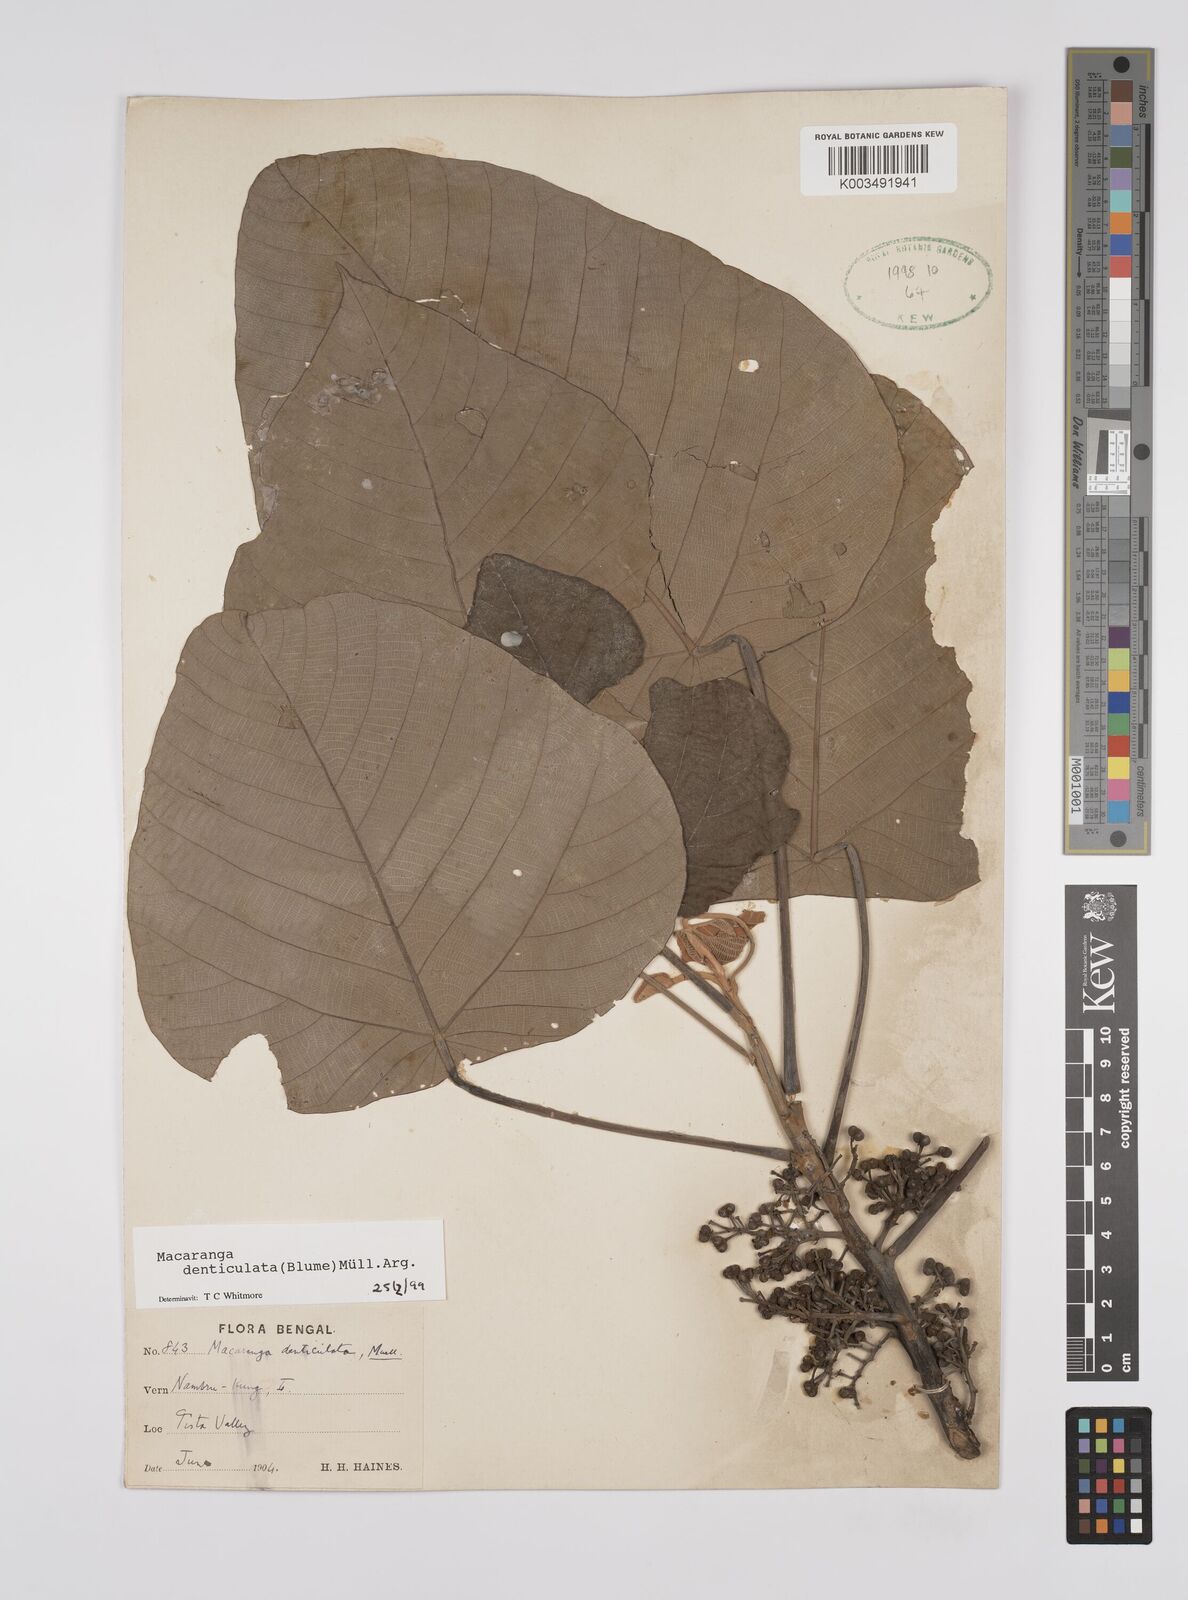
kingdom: Plantae
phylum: Tracheophyta
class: Magnoliopsida
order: Malpighiales
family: Euphorbiaceae
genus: Macaranga
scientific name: Macaranga denticulata
